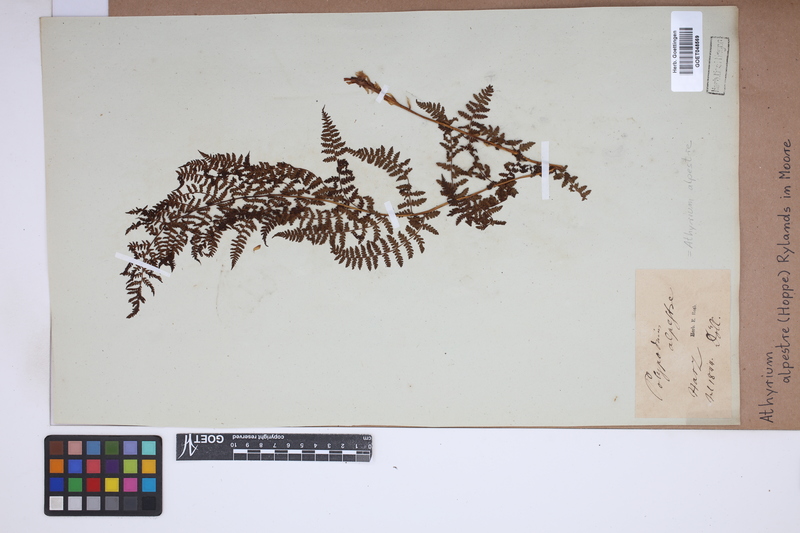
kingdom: Plantae
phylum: Tracheophyta
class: Polypodiopsida
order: Polypodiales
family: Athyriaceae
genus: Pseudathyrium
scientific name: Pseudathyrium alpestre
